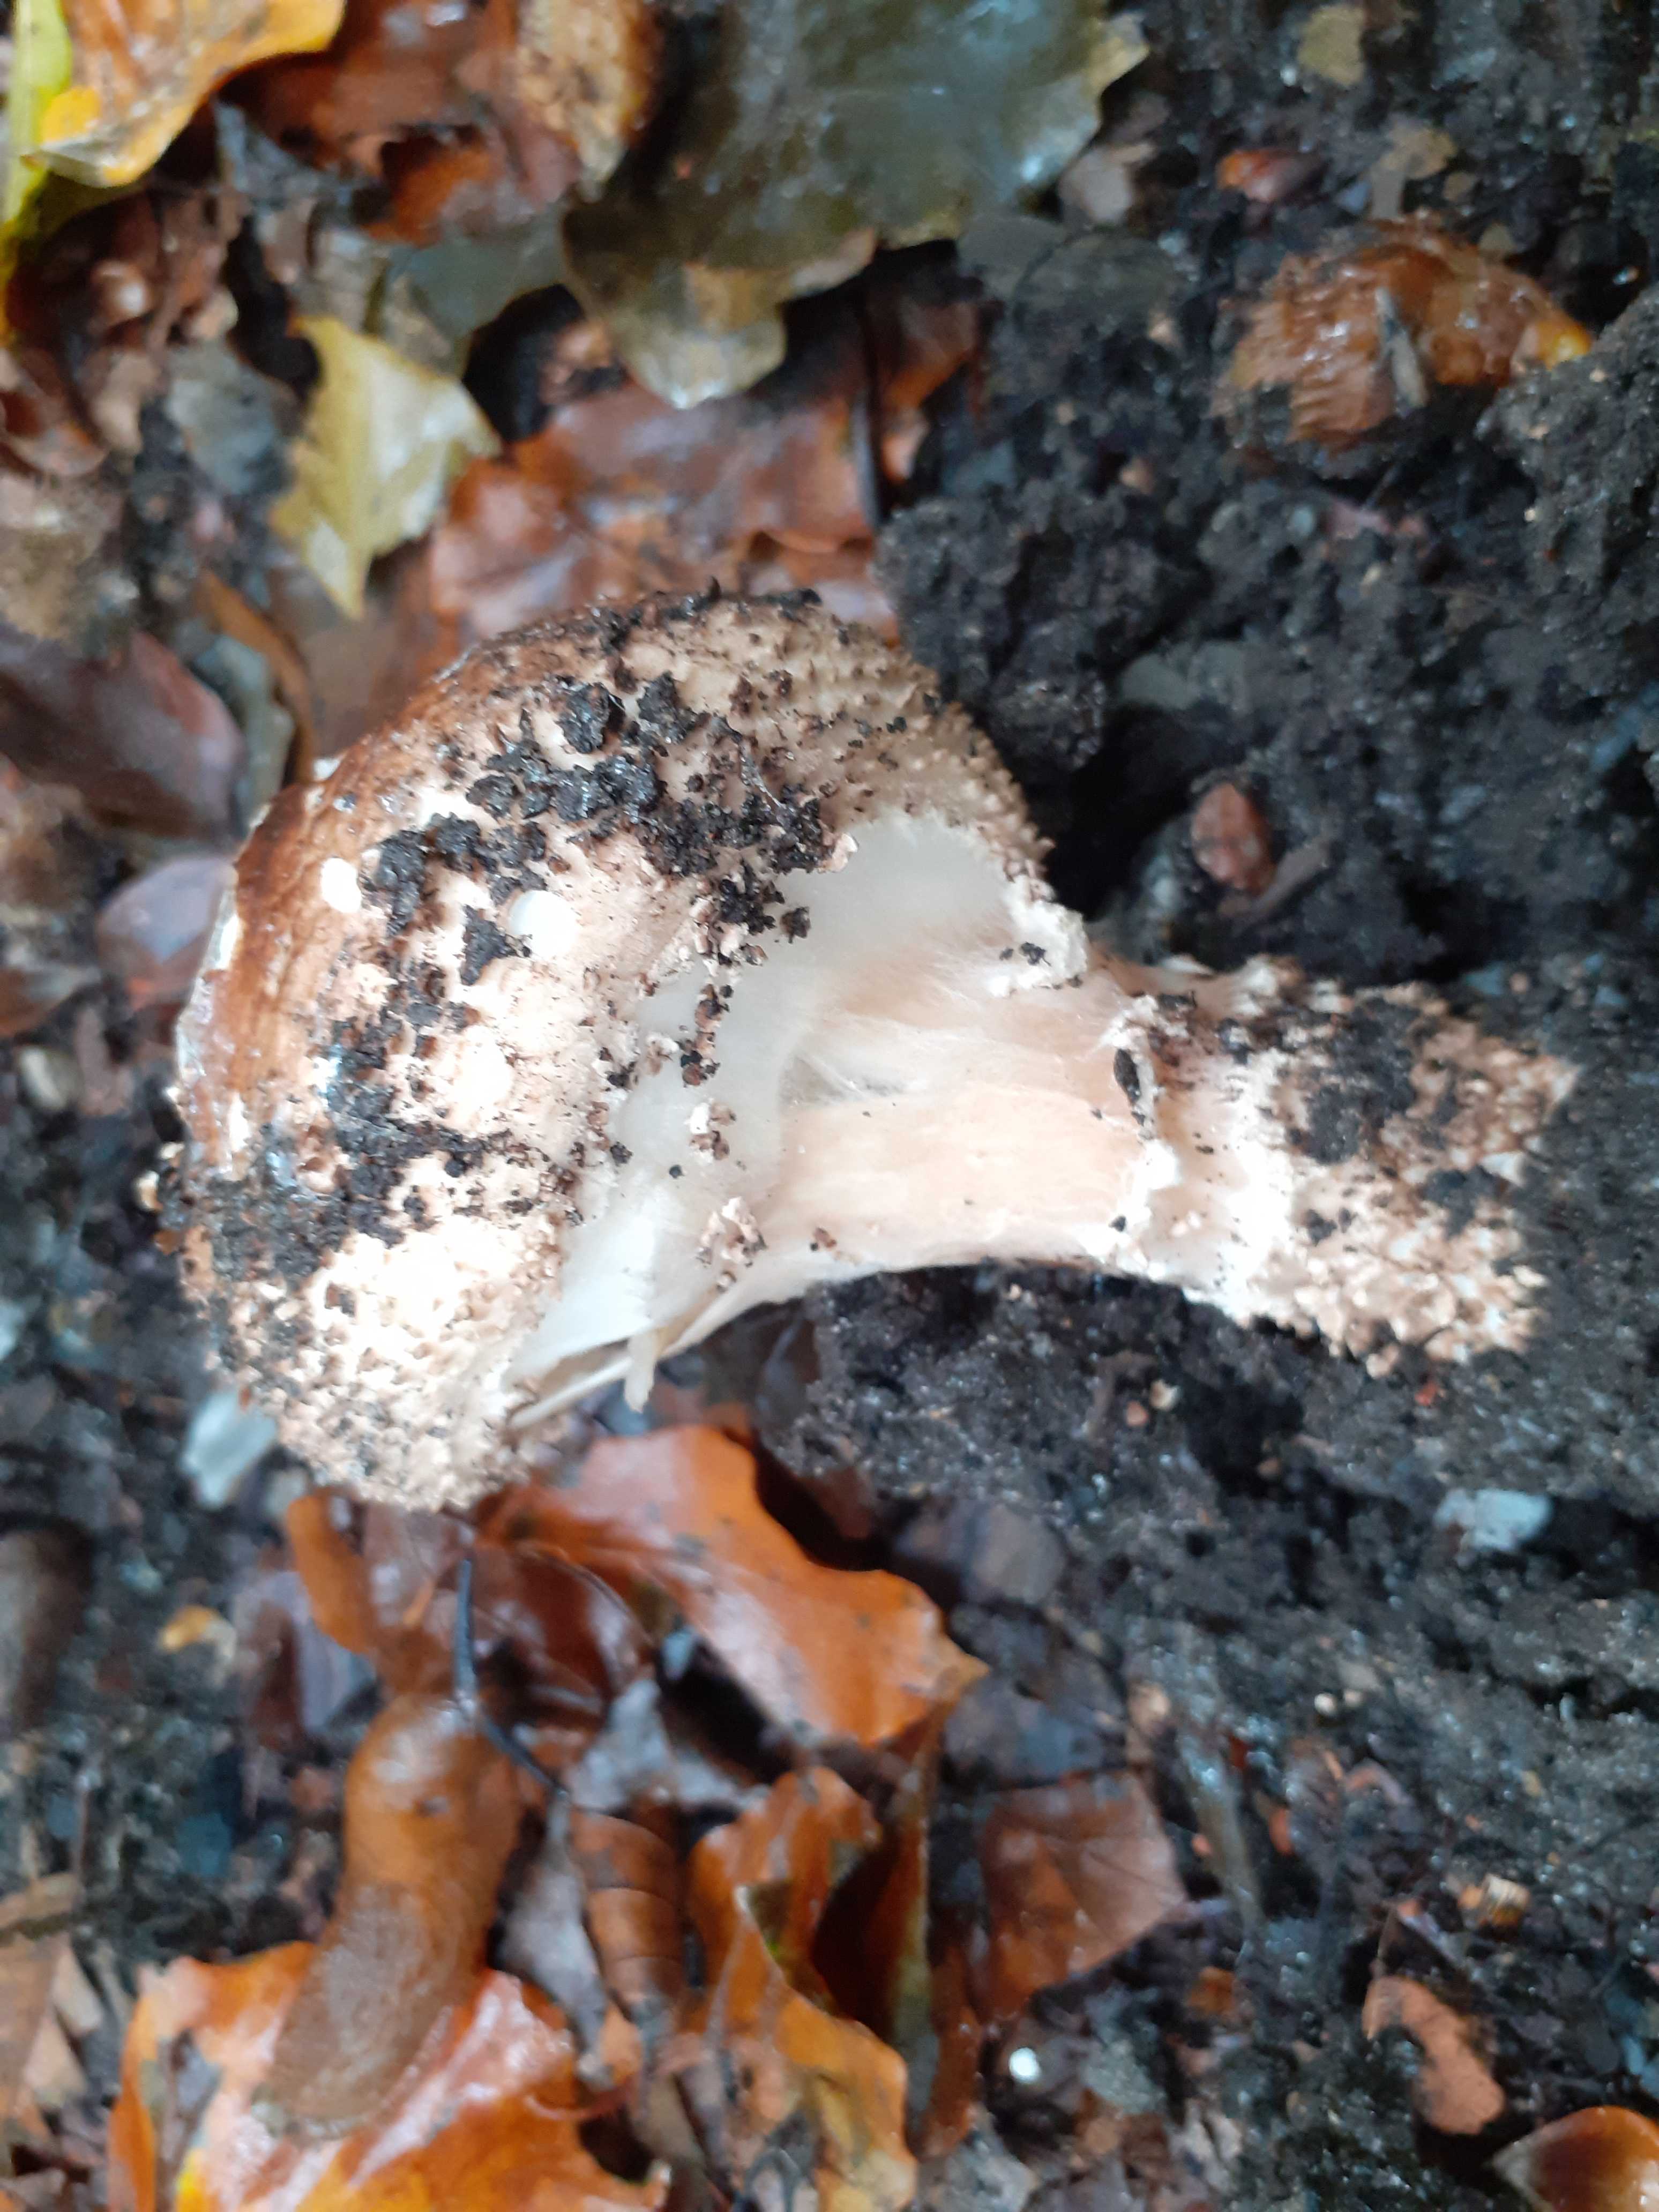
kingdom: Fungi
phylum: Basidiomycota
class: Agaricomycetes
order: Agaricales
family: Agaricaceae
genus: Echinoderma
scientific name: Echinoderma asperum
